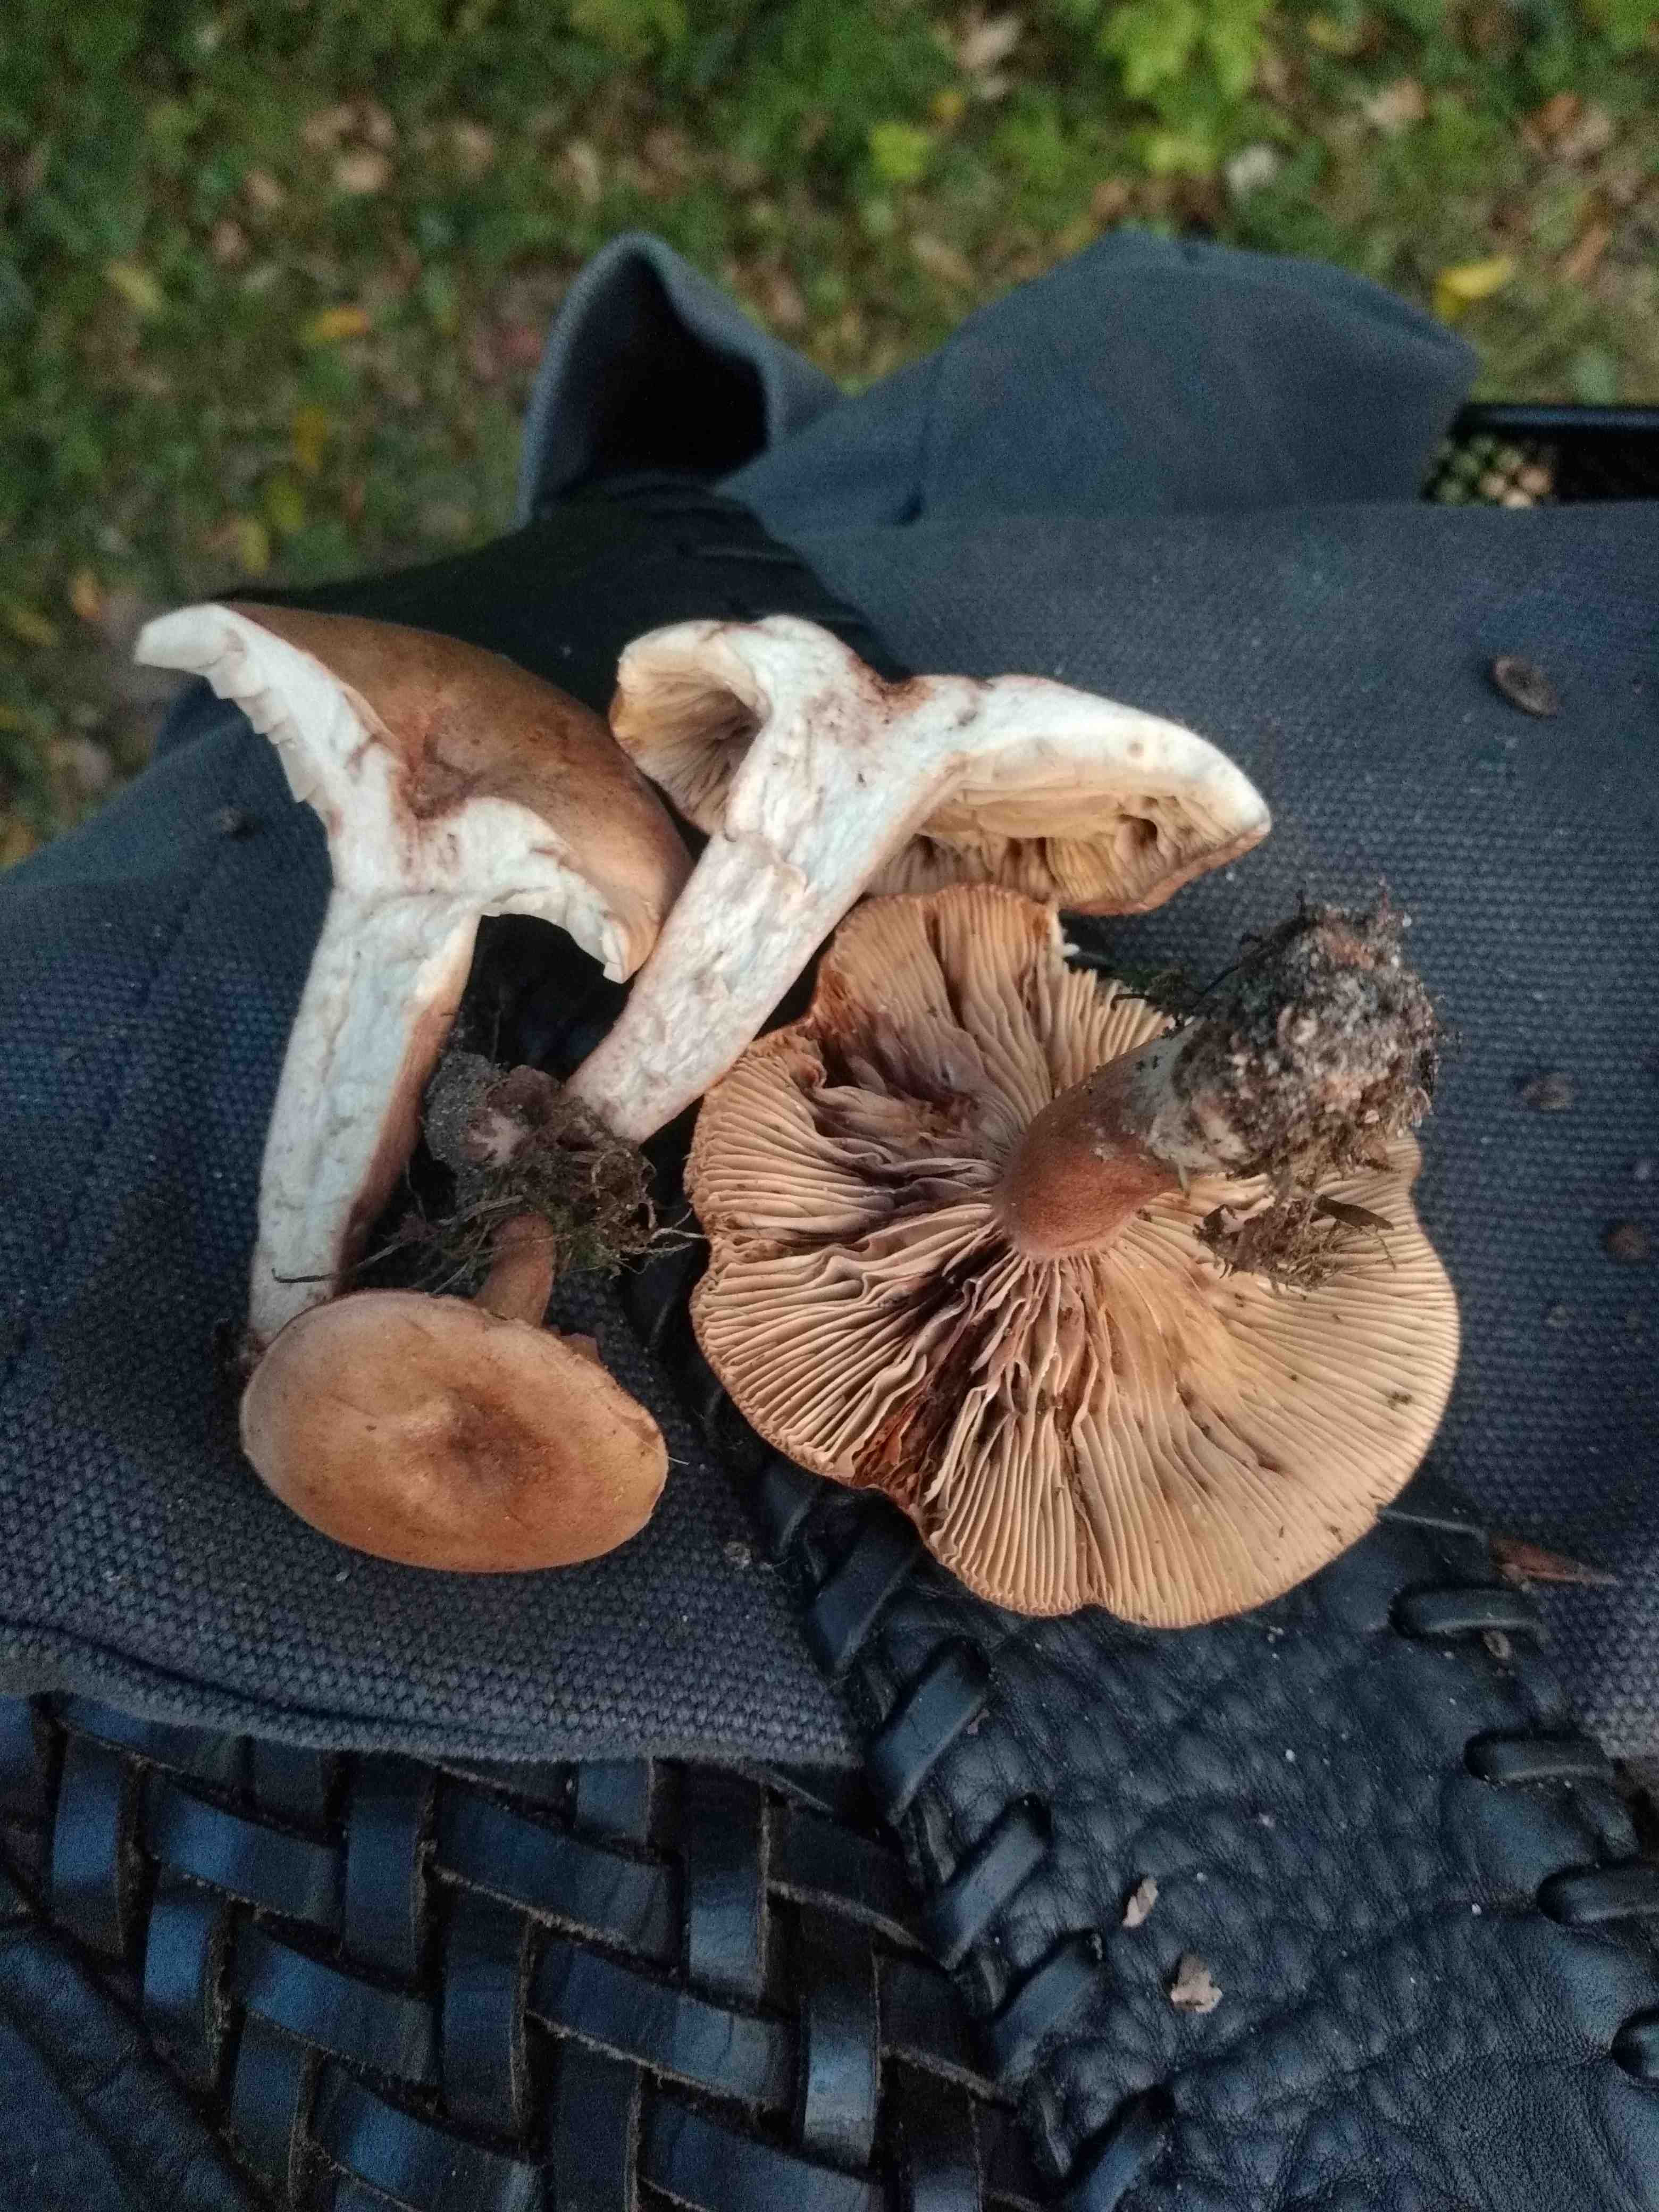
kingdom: Fungi
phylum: Basidiomycota
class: Agaricomycetes
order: Russulales
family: Russulaceae
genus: Lactarius
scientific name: Lactarius quietus
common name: ege-mælkehat
